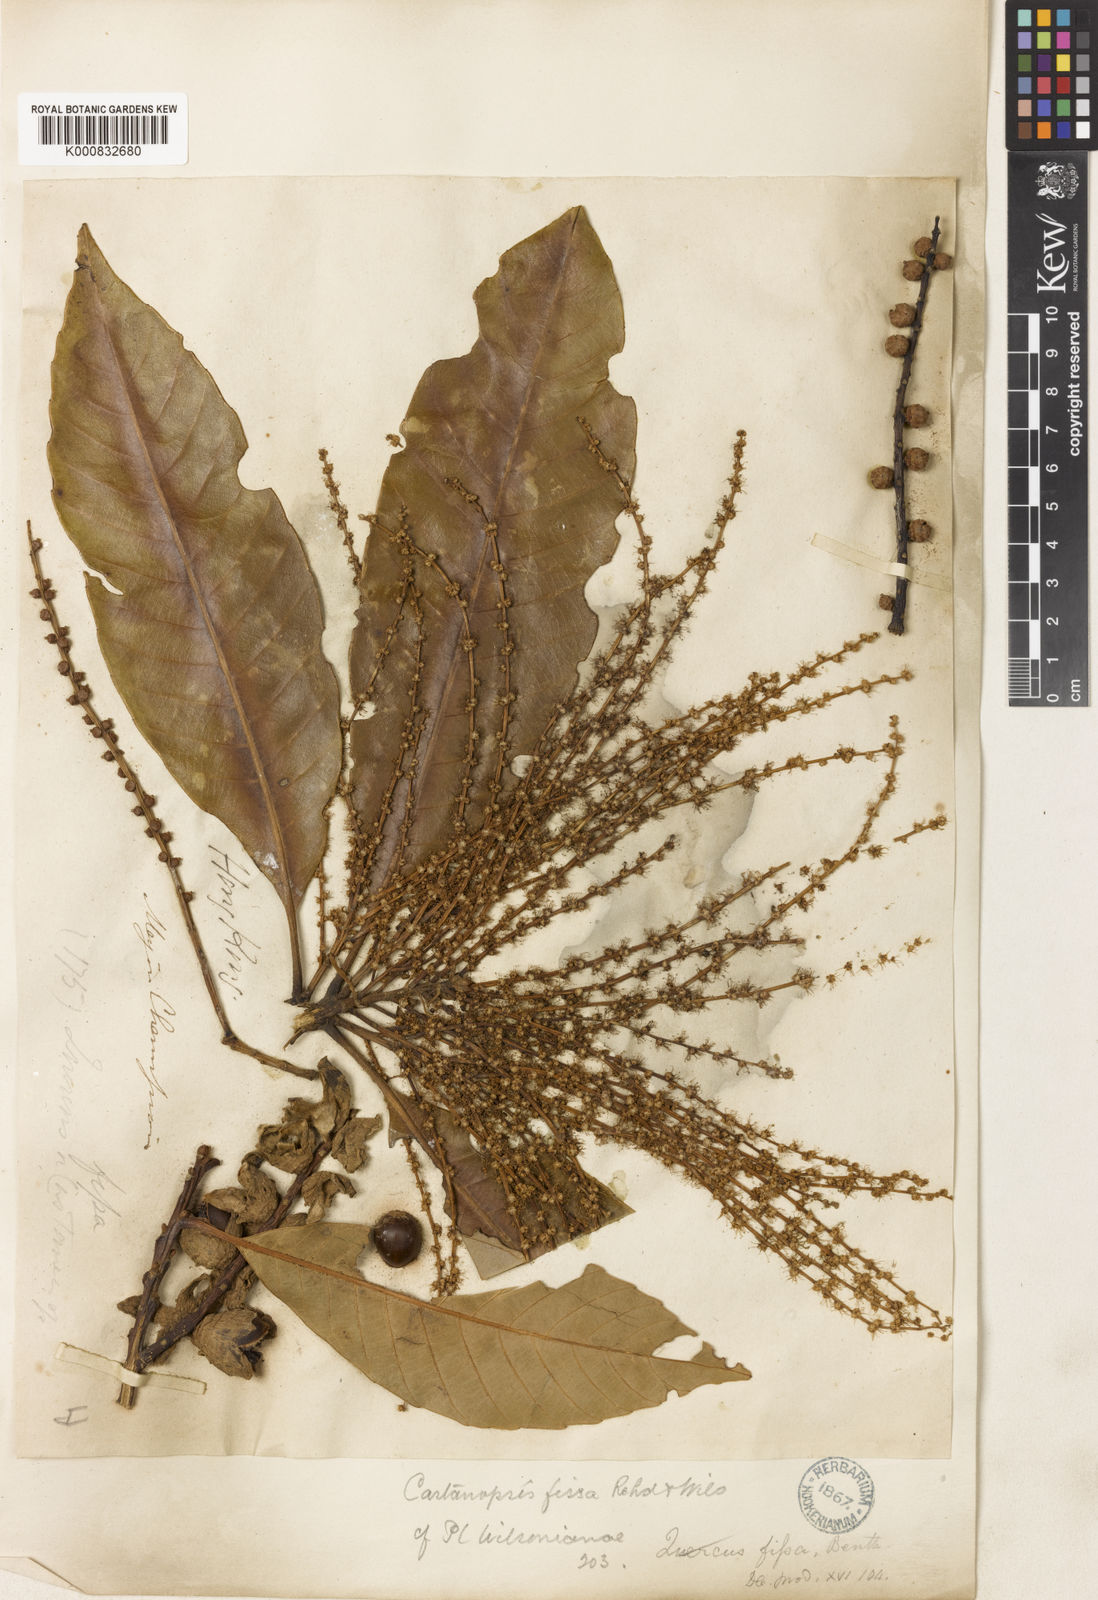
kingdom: Plantae
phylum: Tracheophyta
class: Magnoliopsida
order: Fagales
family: Fagaceae
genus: Castanopsis
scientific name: Castanopsis fissa
